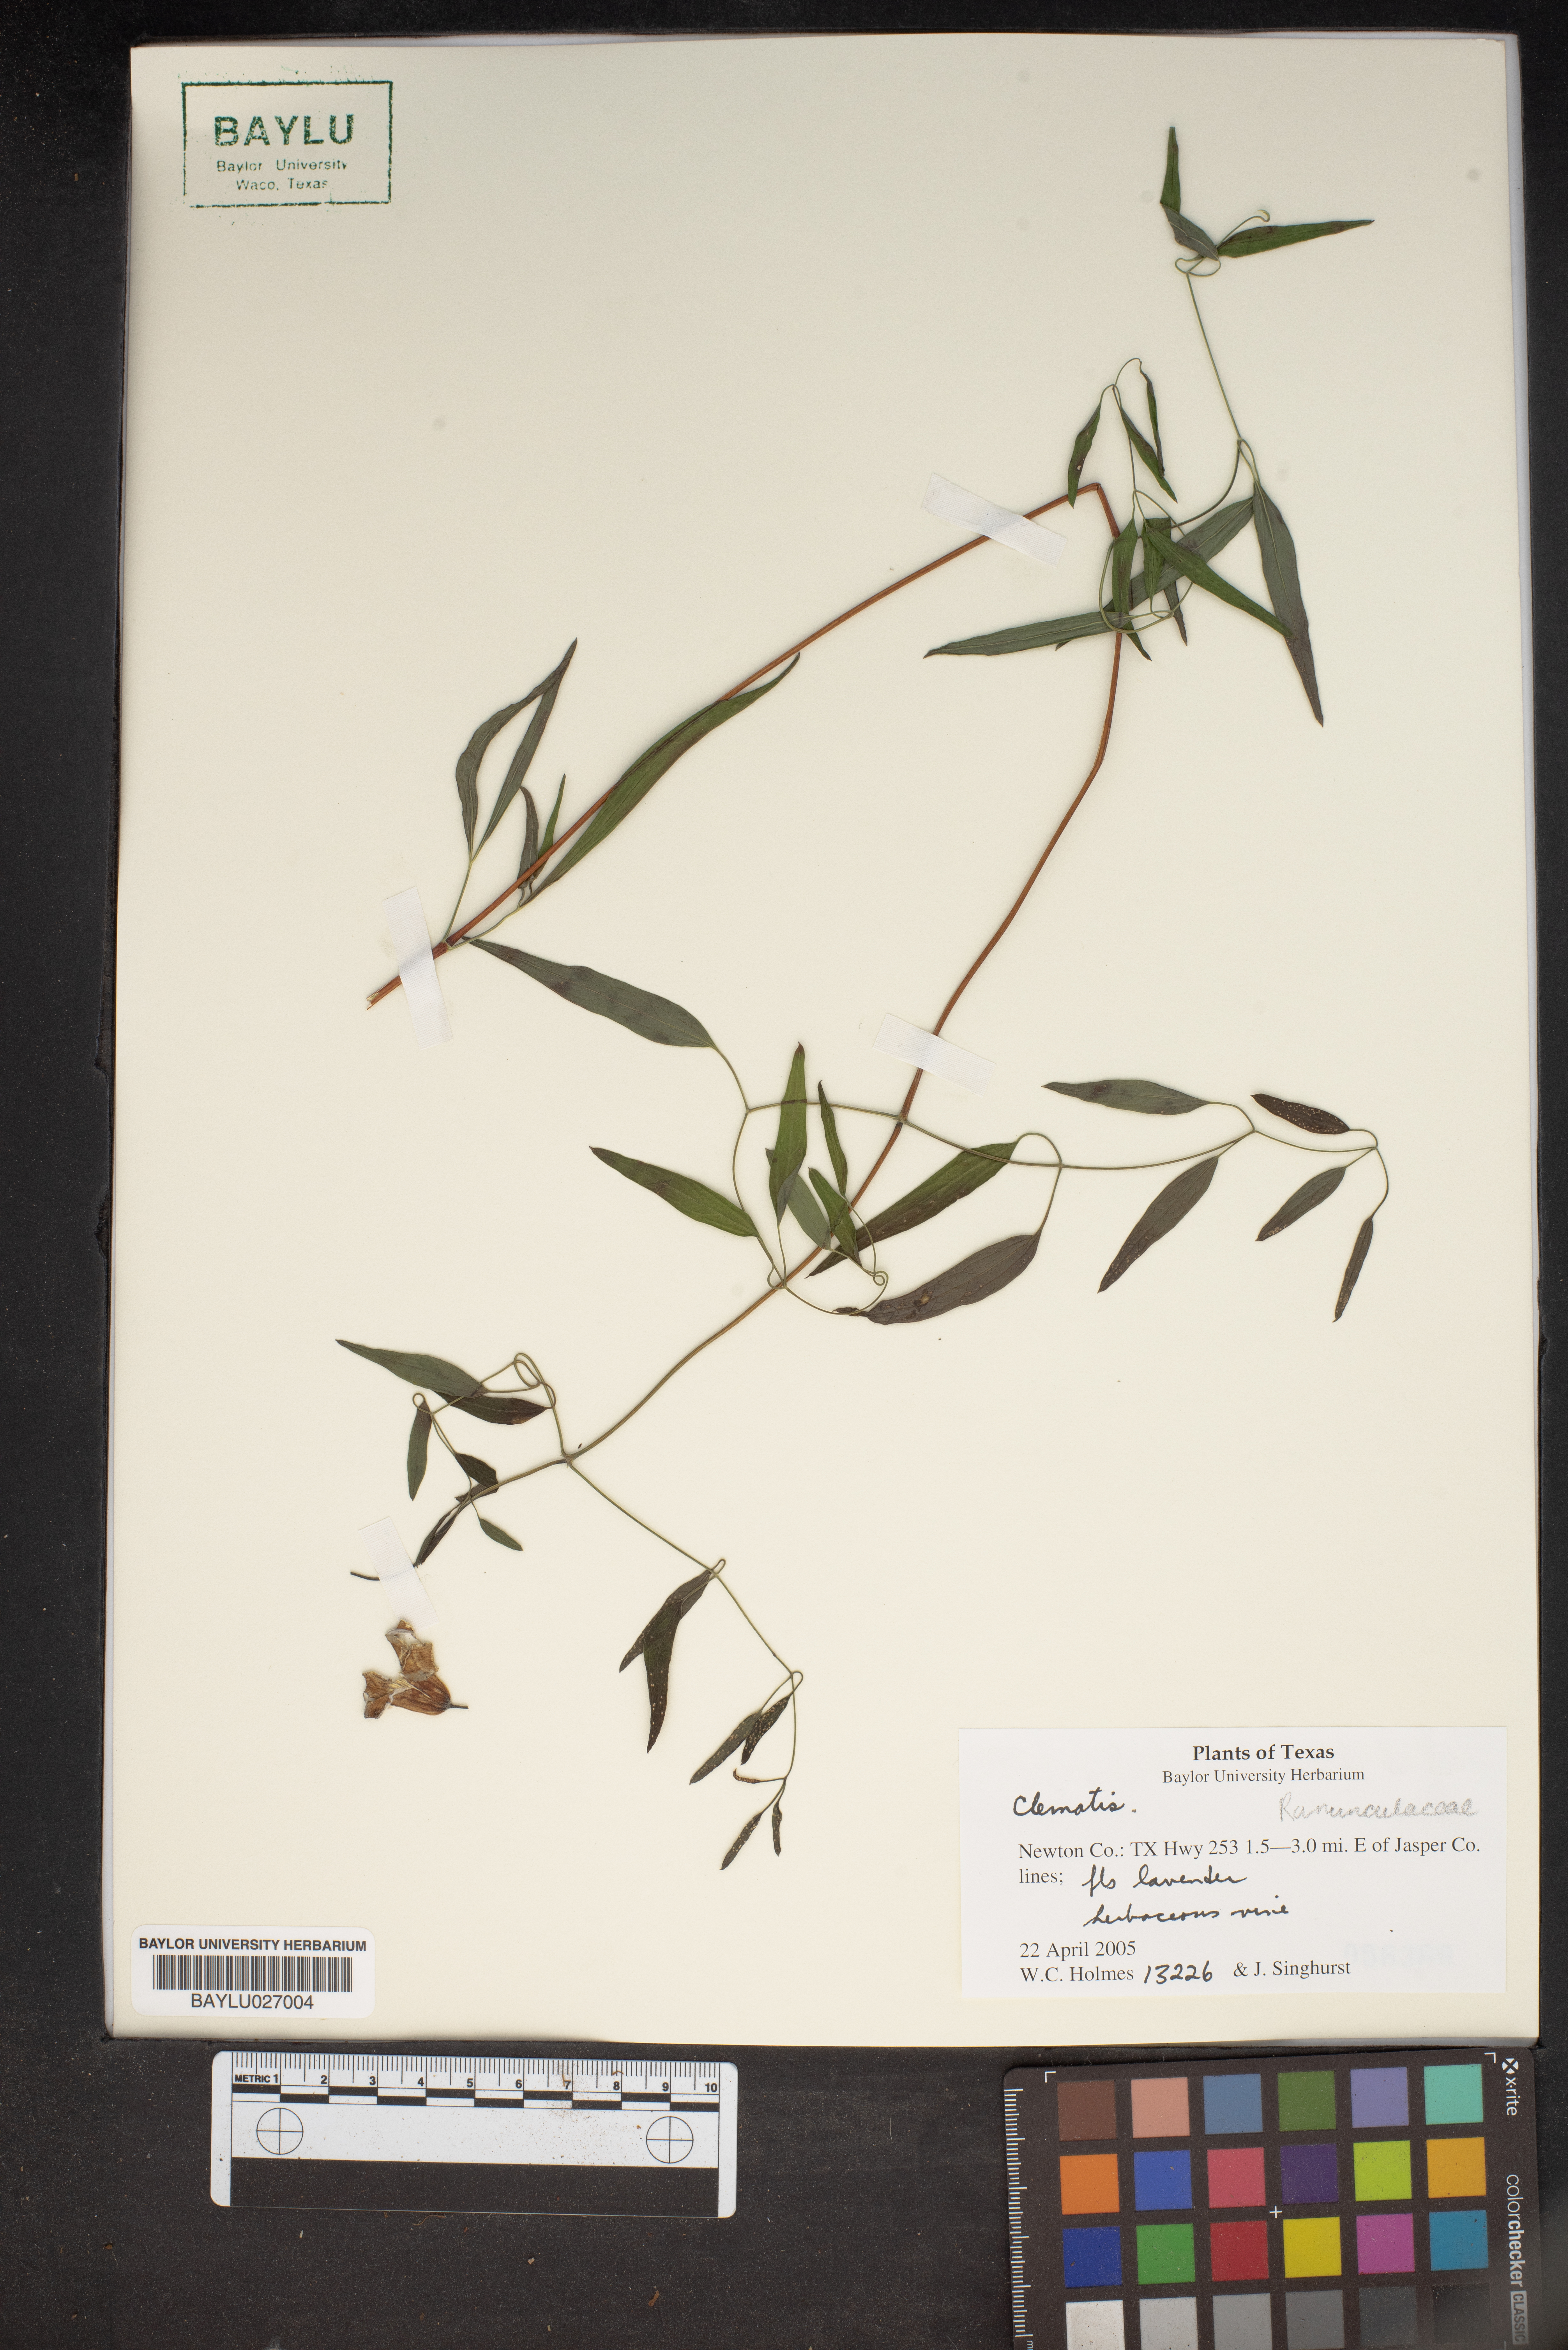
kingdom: Plantae
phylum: Tracheophyta
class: Magnoliopsida
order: Ranunculales
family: Ranunculaceae
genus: Clematis
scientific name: Clematis
